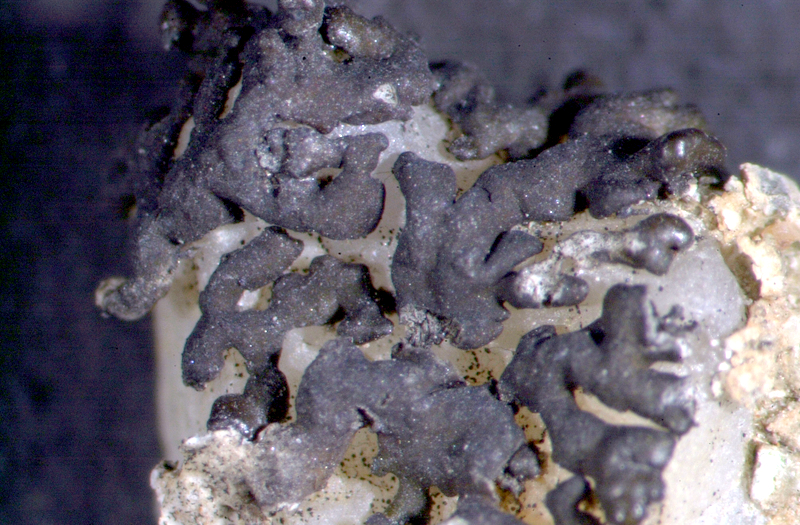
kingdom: Fungi
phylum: Ascomycota
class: Lecanoromycetes
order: Lecanorales
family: Parmeliaceae
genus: Xanthoparmelia
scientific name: Xanthoparmelia dregeana
